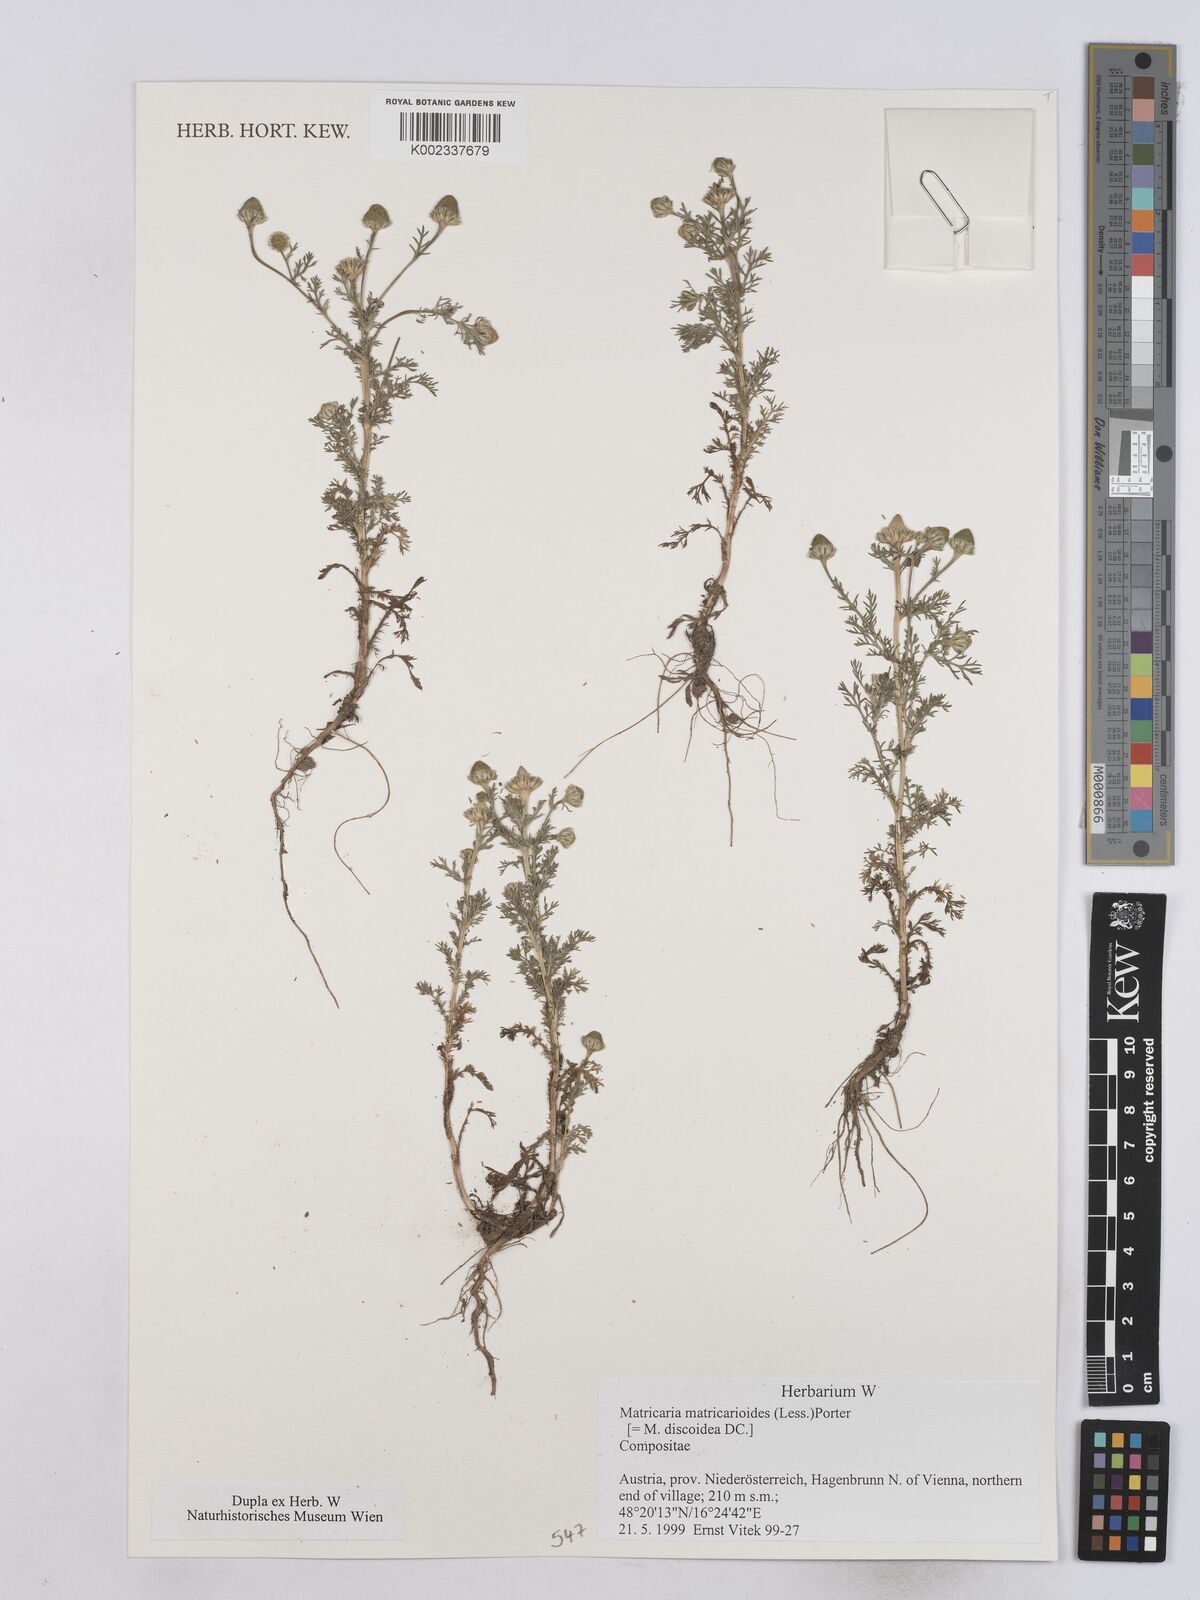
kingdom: Plantae
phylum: Tracheophyta
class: Magnoliopsida
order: Asterales
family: Asteraceae
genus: Matricaria
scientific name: Matricaria discoidea
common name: Disc mayweed
